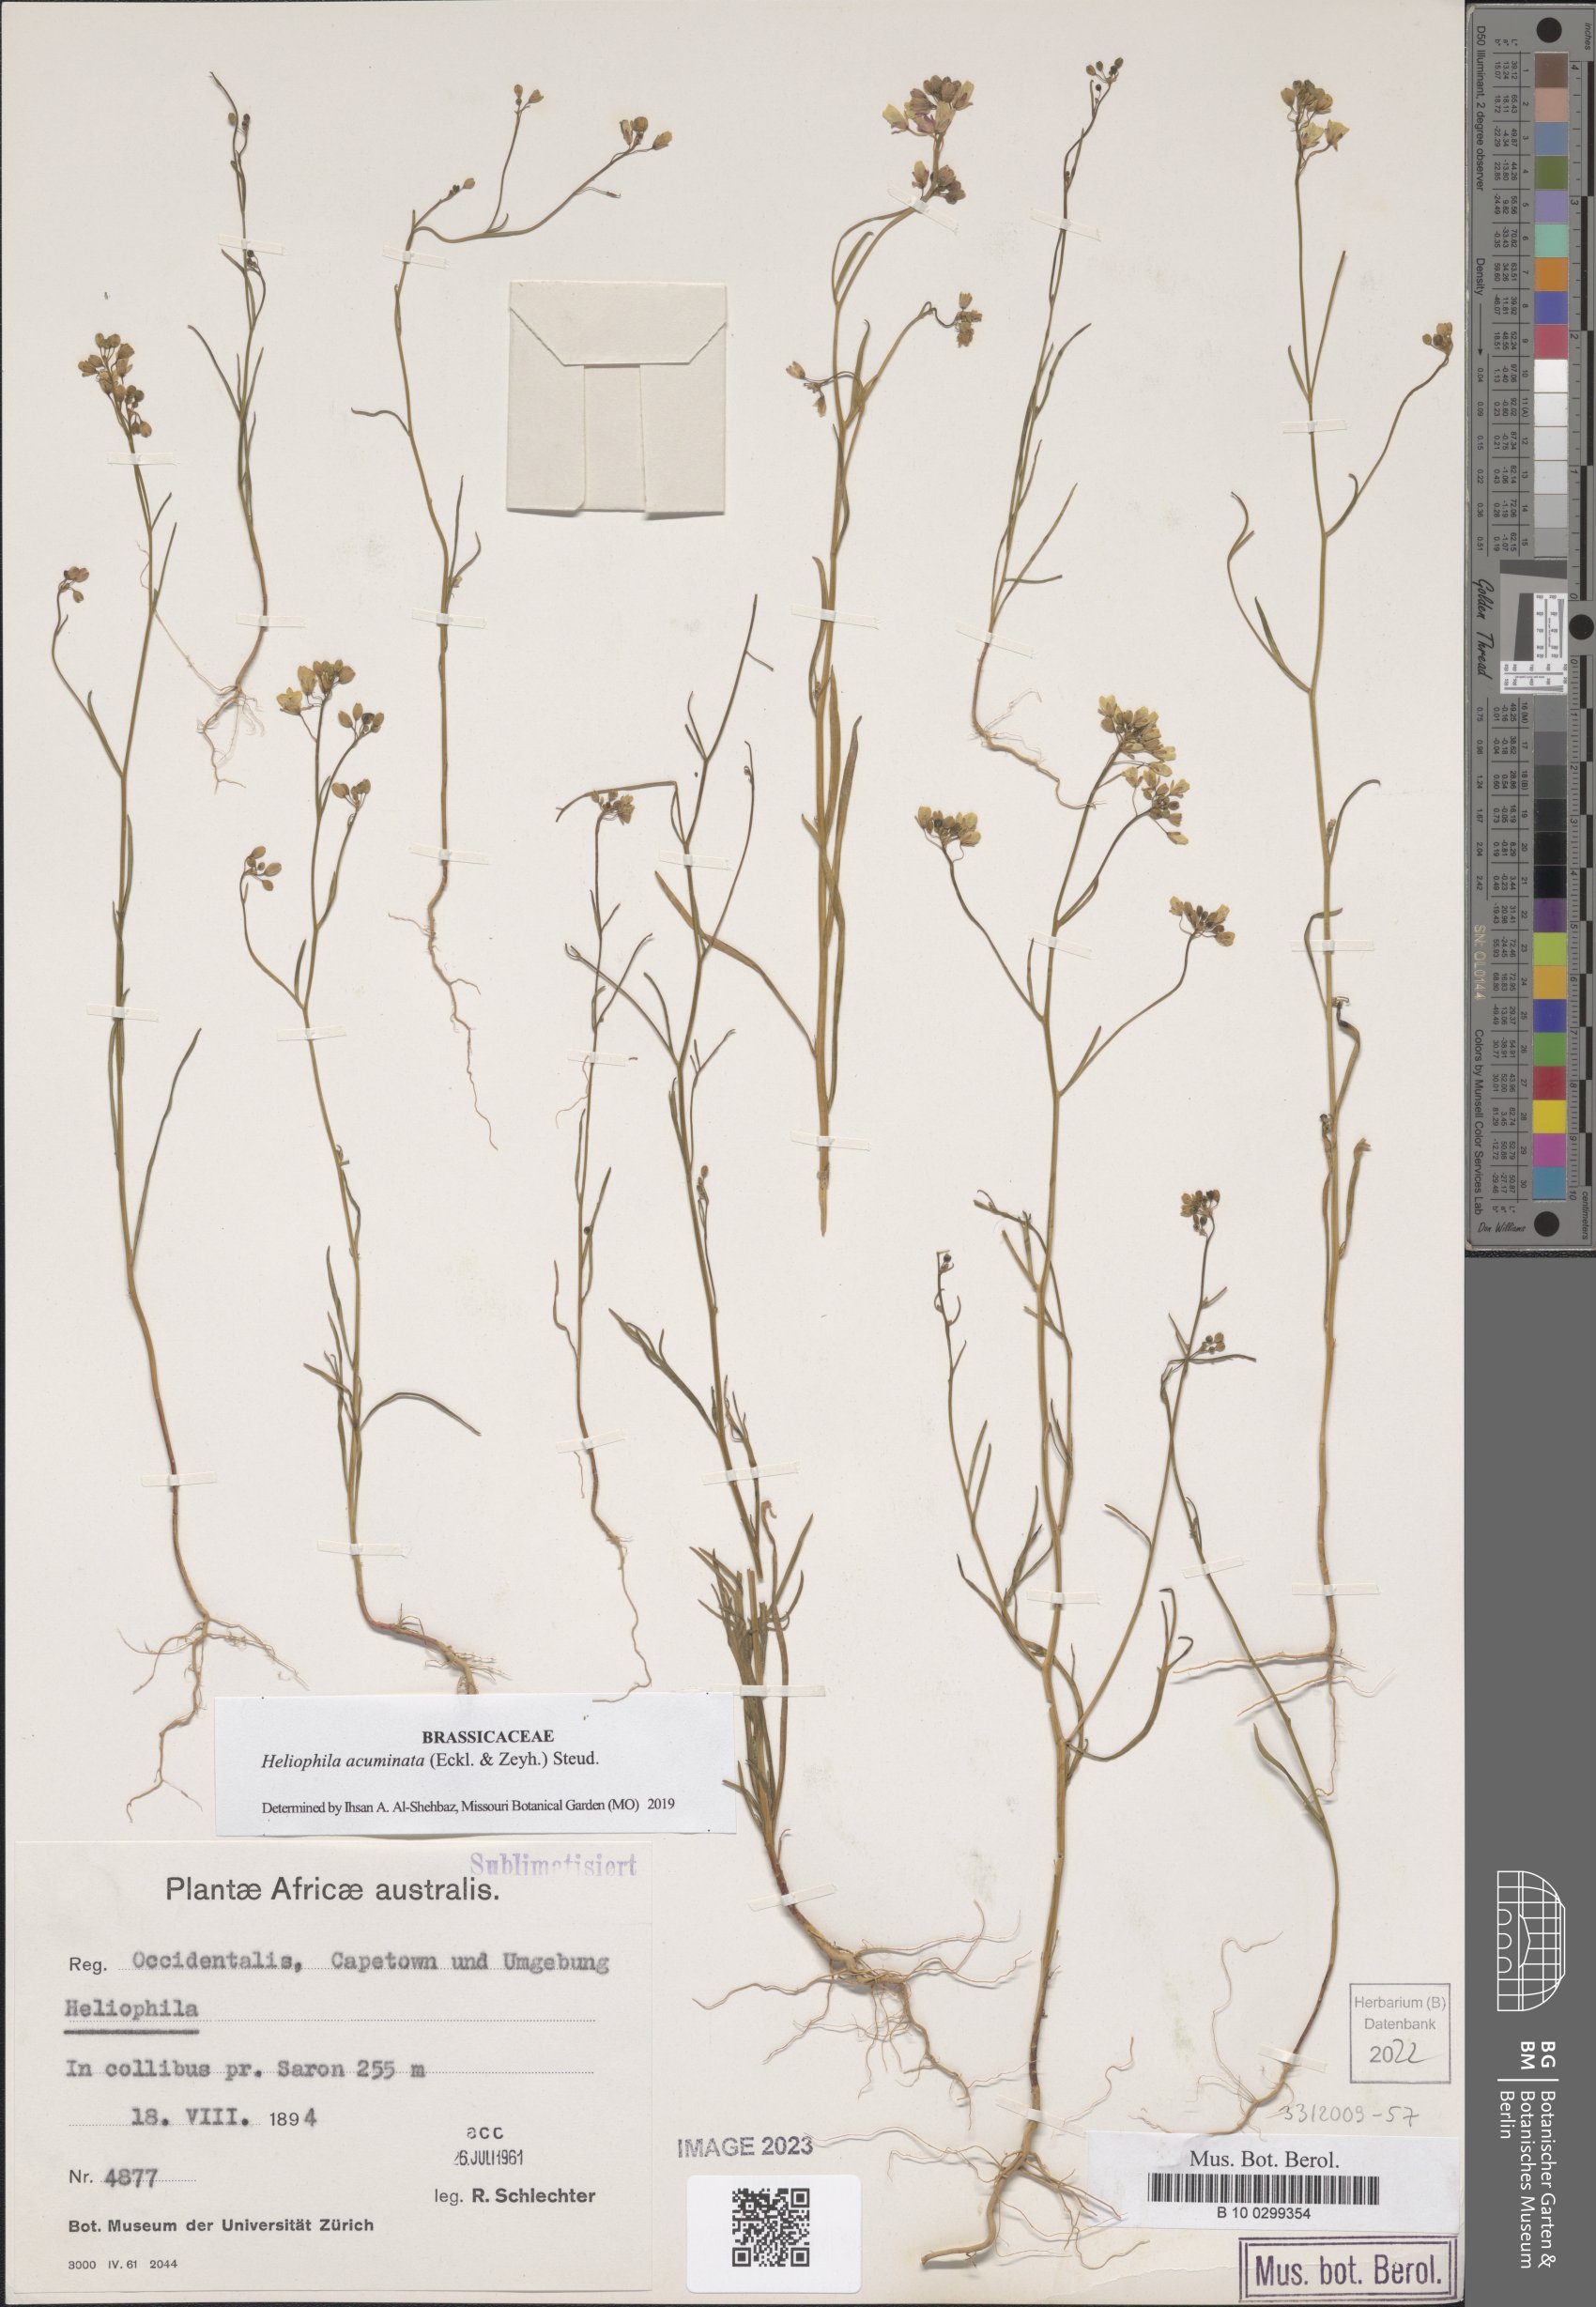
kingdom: Plantae
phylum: Tracheophyta
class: Magnoliopsida
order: Brassicales
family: Brassicaceae
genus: Heliophila
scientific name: Heliophila acuminata
